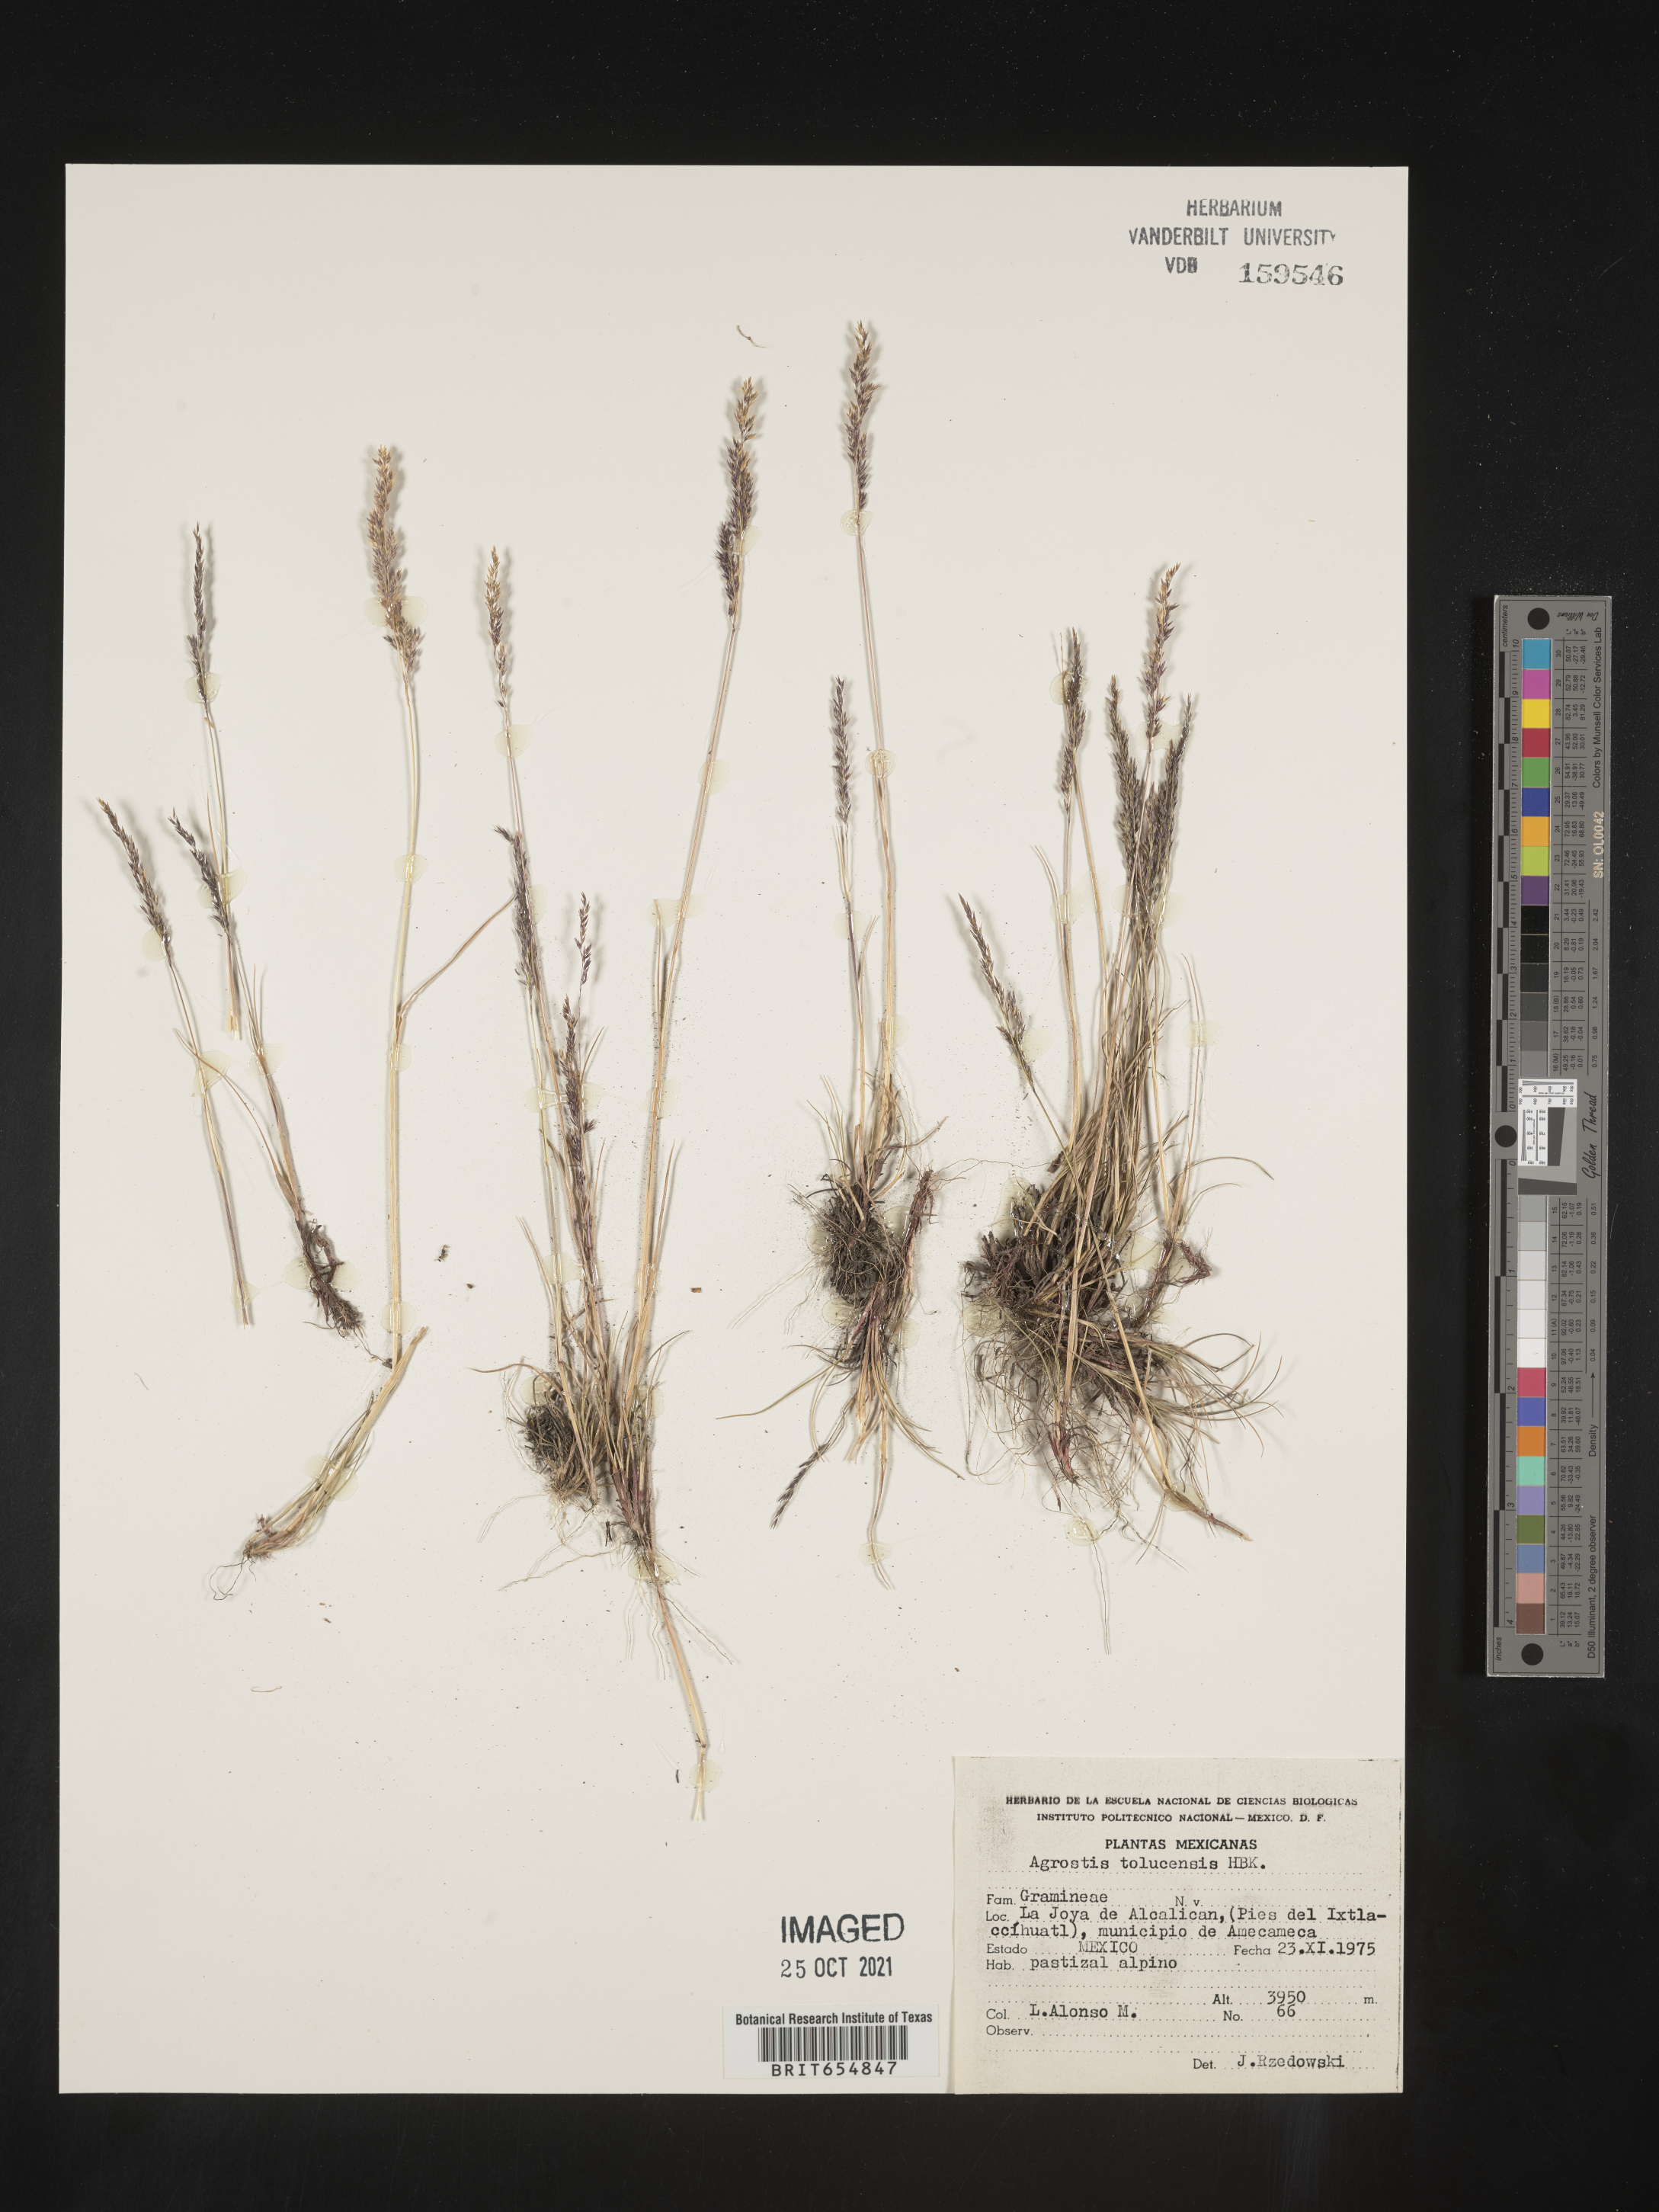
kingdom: Plantae
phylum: Tracheophyta
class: Liliopsida
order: Poales
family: Poaceae
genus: Agrostis
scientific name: Agrostis
